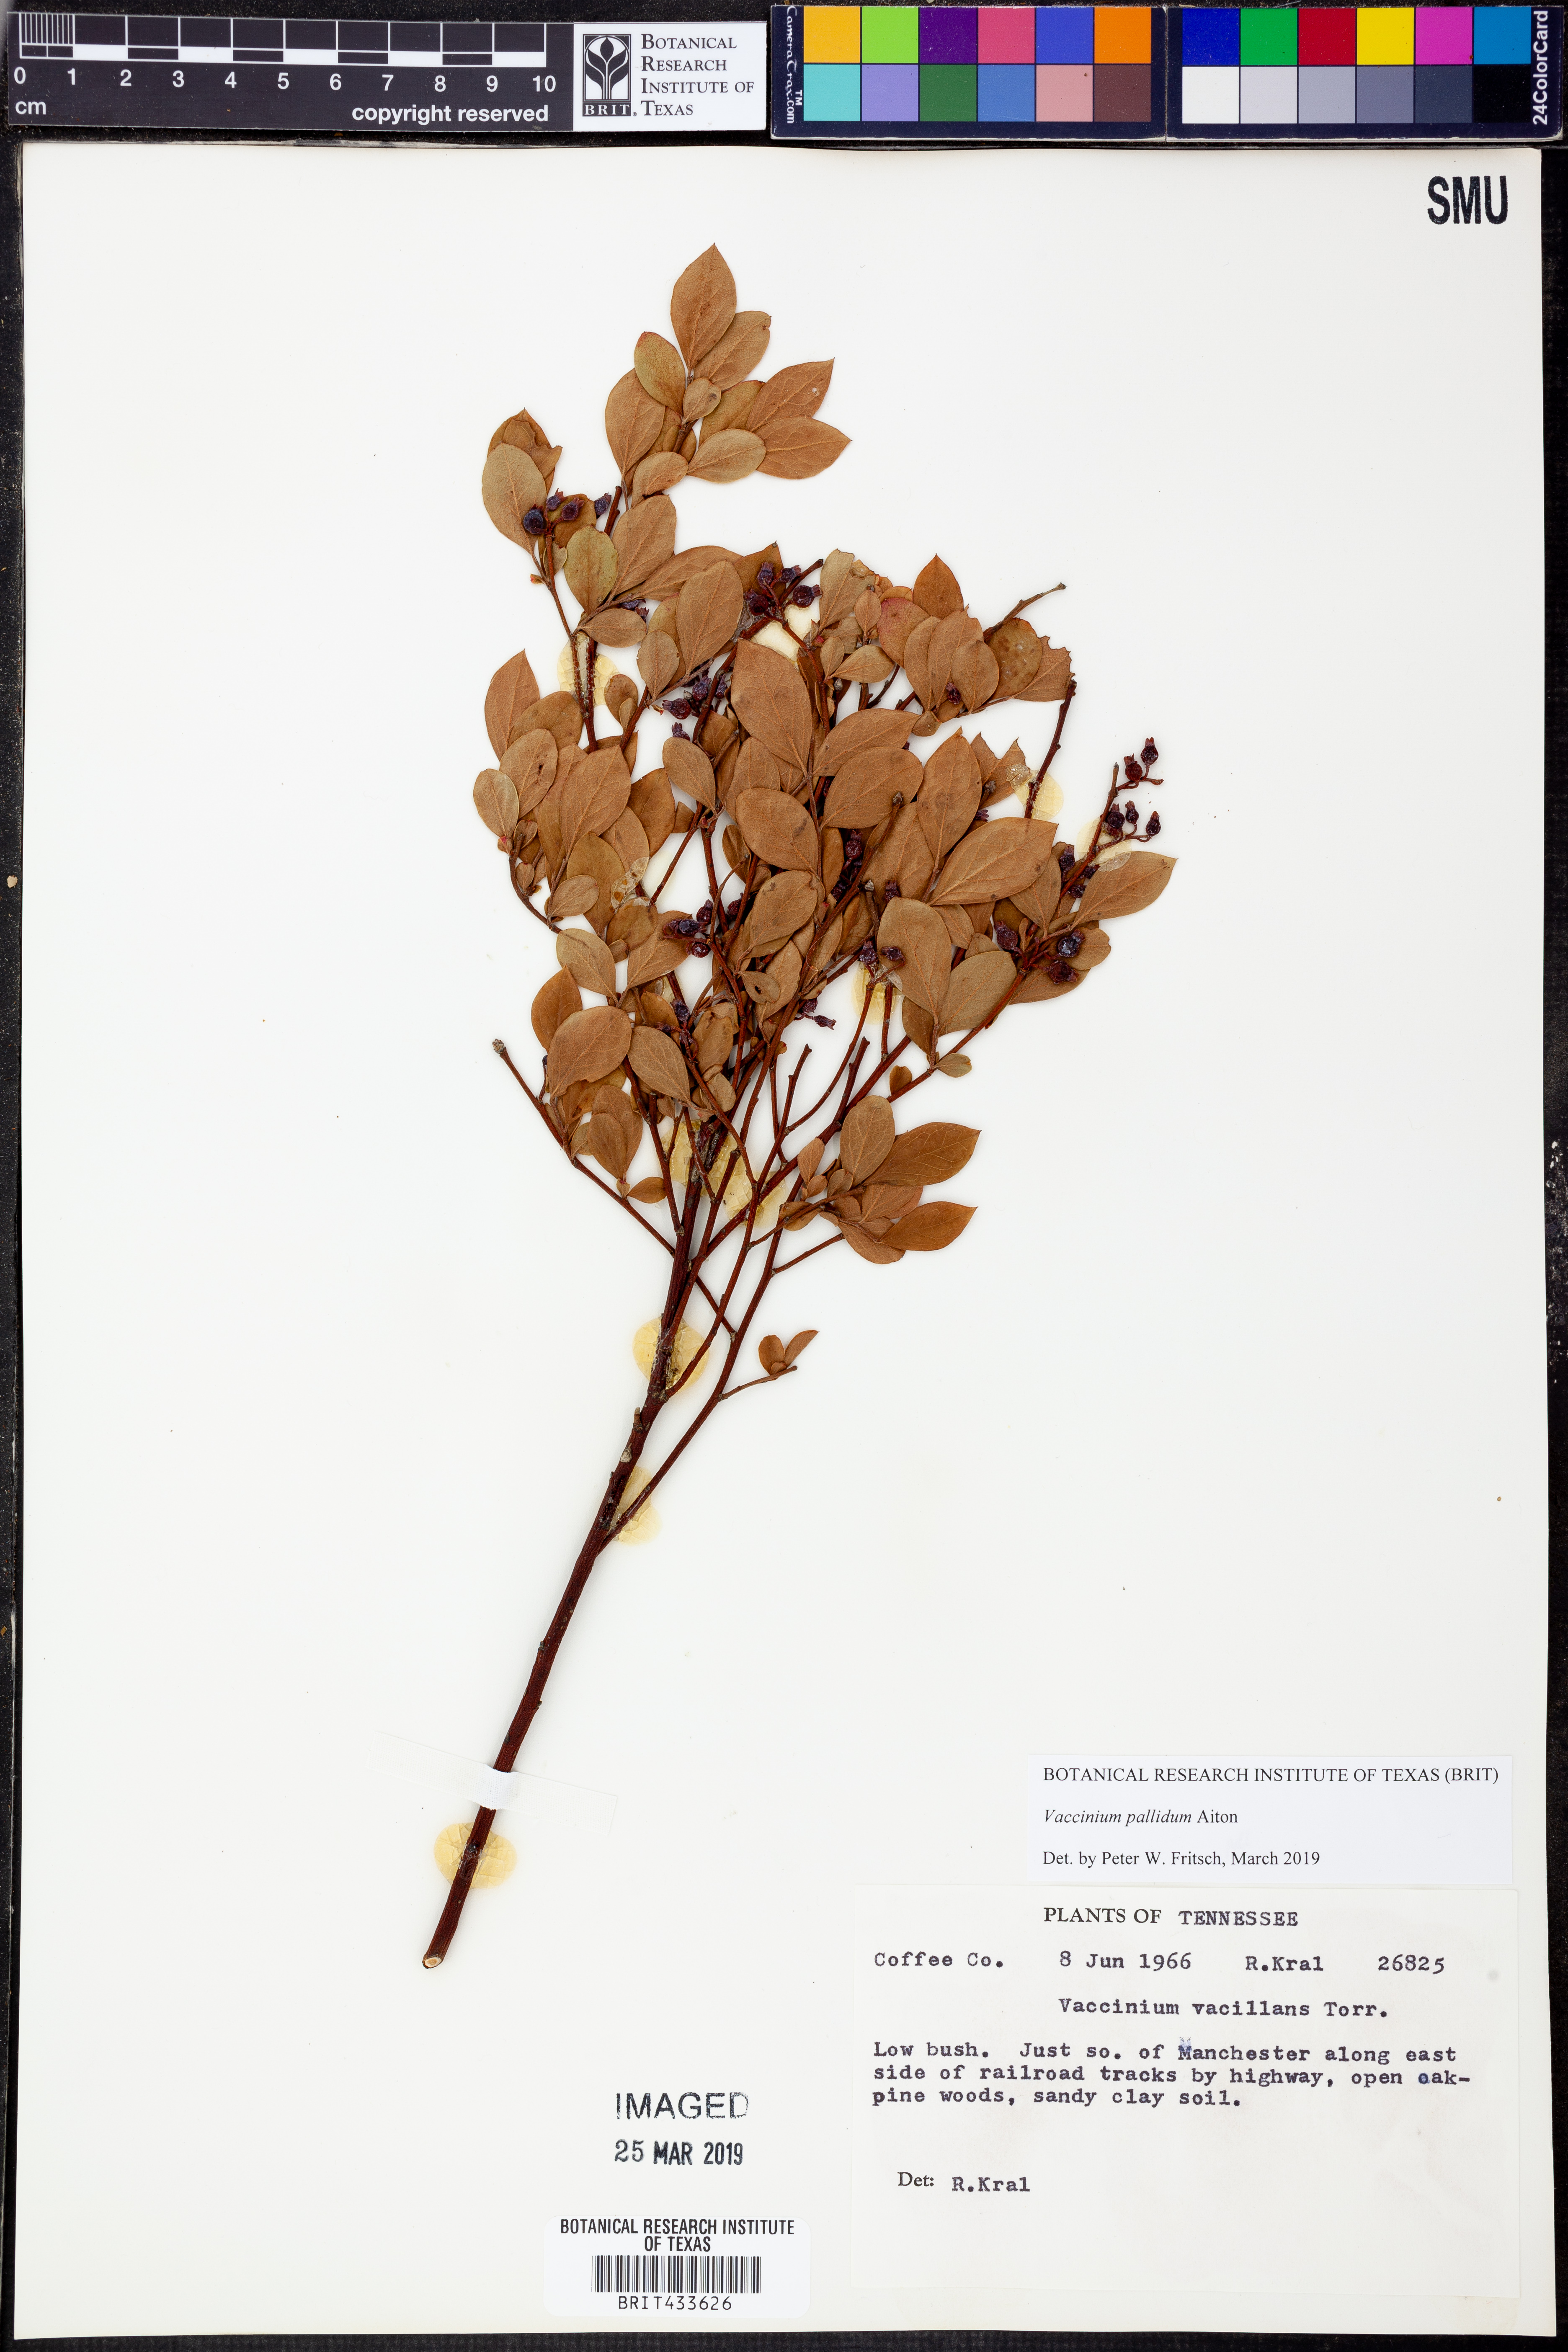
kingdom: Plantae
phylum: Tracheophyta
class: Magnoliopsida
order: Ericales
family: Ericaceae
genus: Vaccinium
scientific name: Vaccinium pallidum
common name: Blue ridge blueberry
